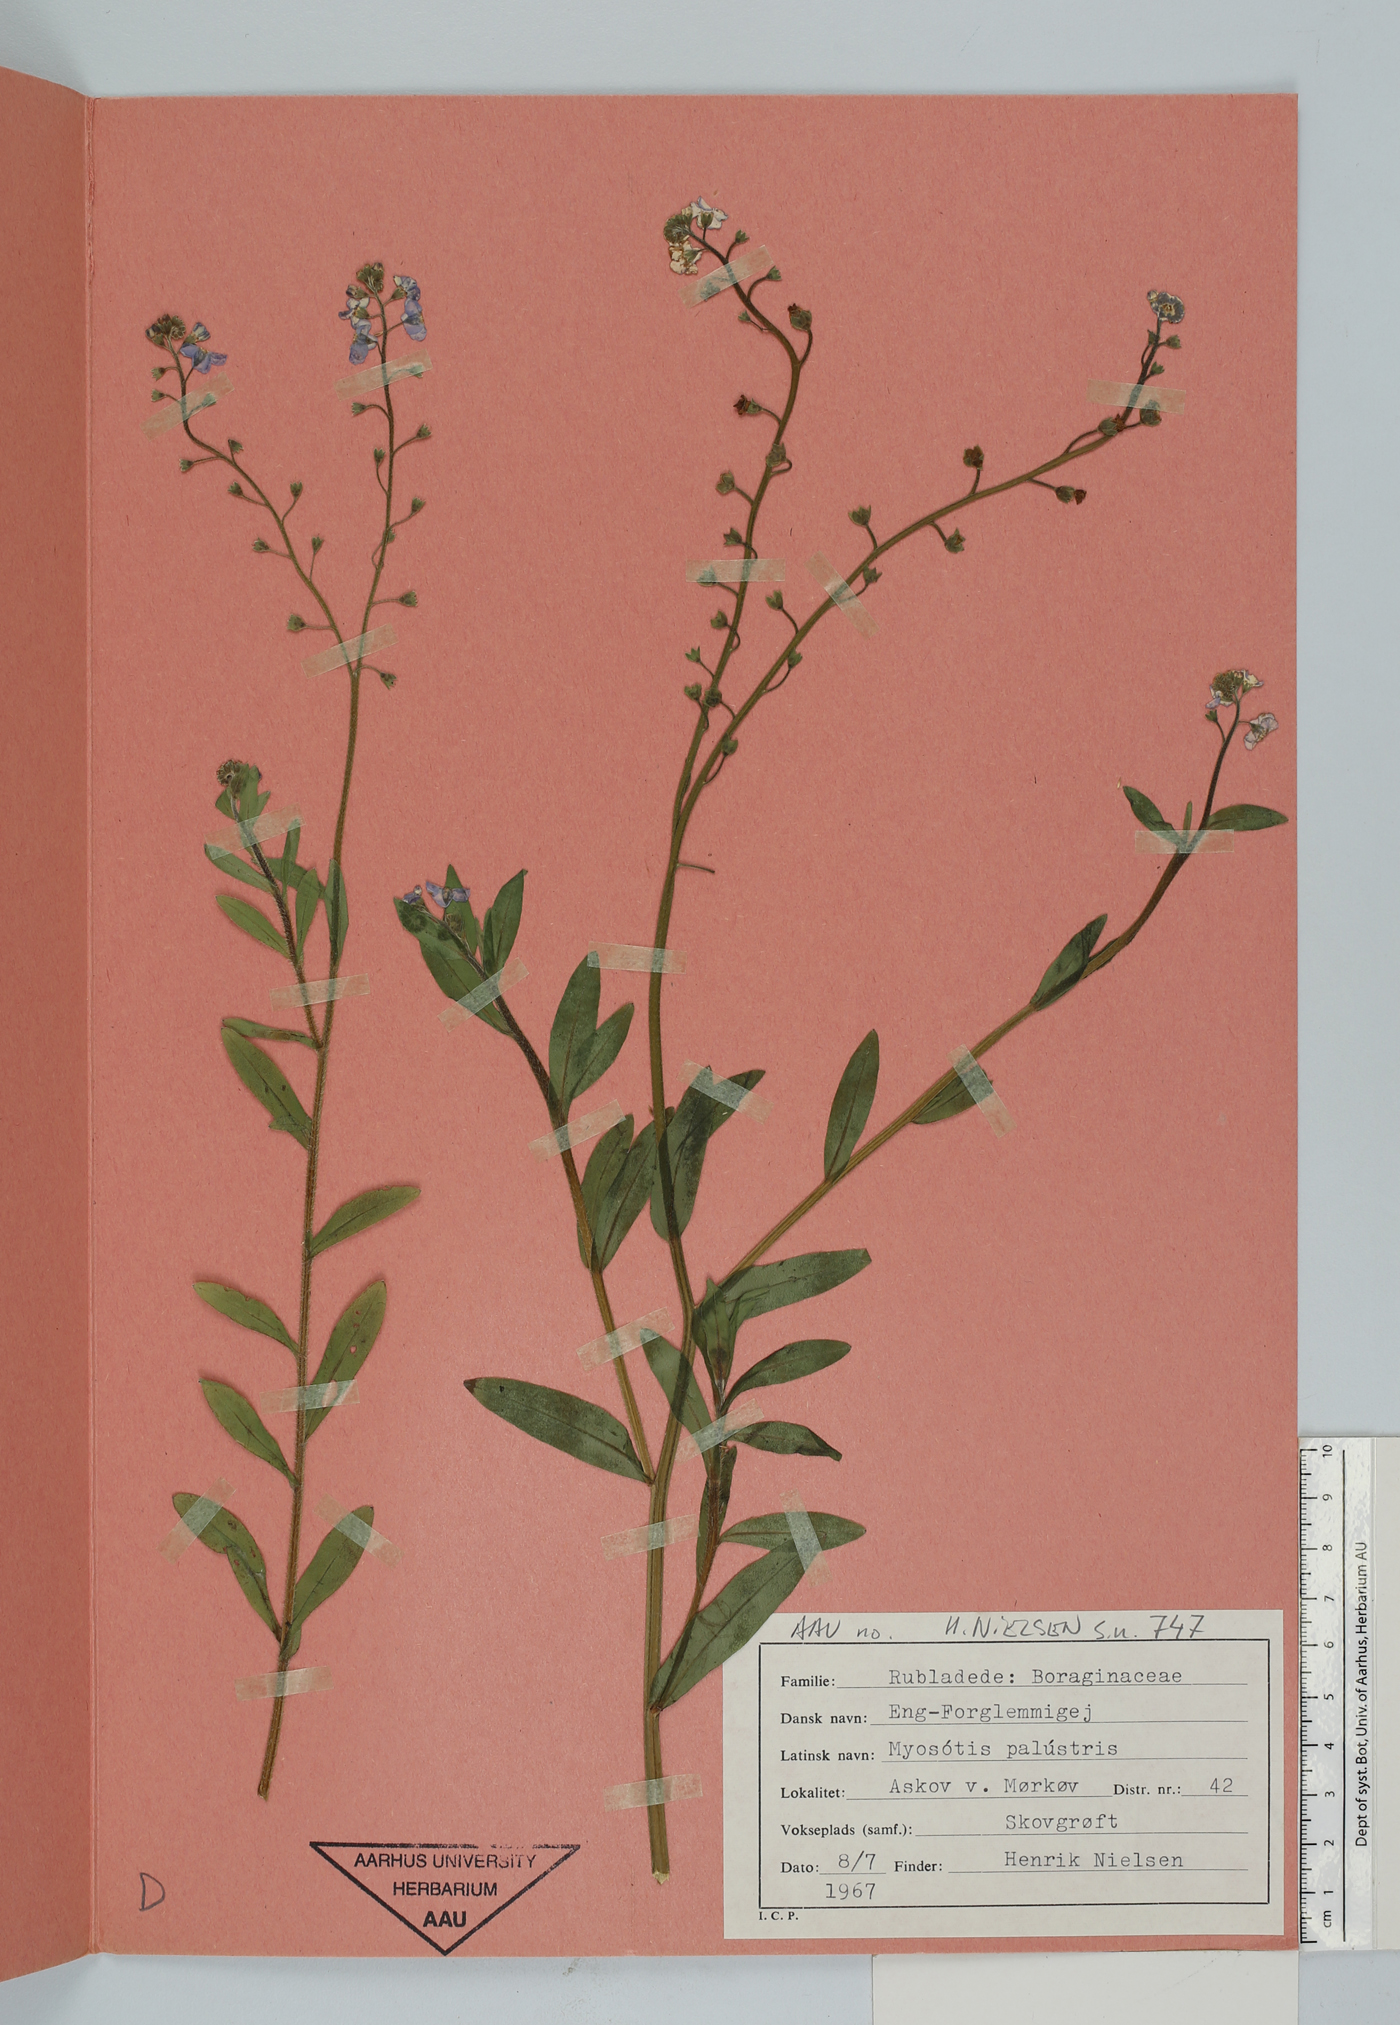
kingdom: Plantae
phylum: Tracheophyta
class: Magnoliopsida
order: Boraginales
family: Boraginaceae
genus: Myosotis
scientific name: Myosotis scorpioides
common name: Water forget-me-not
